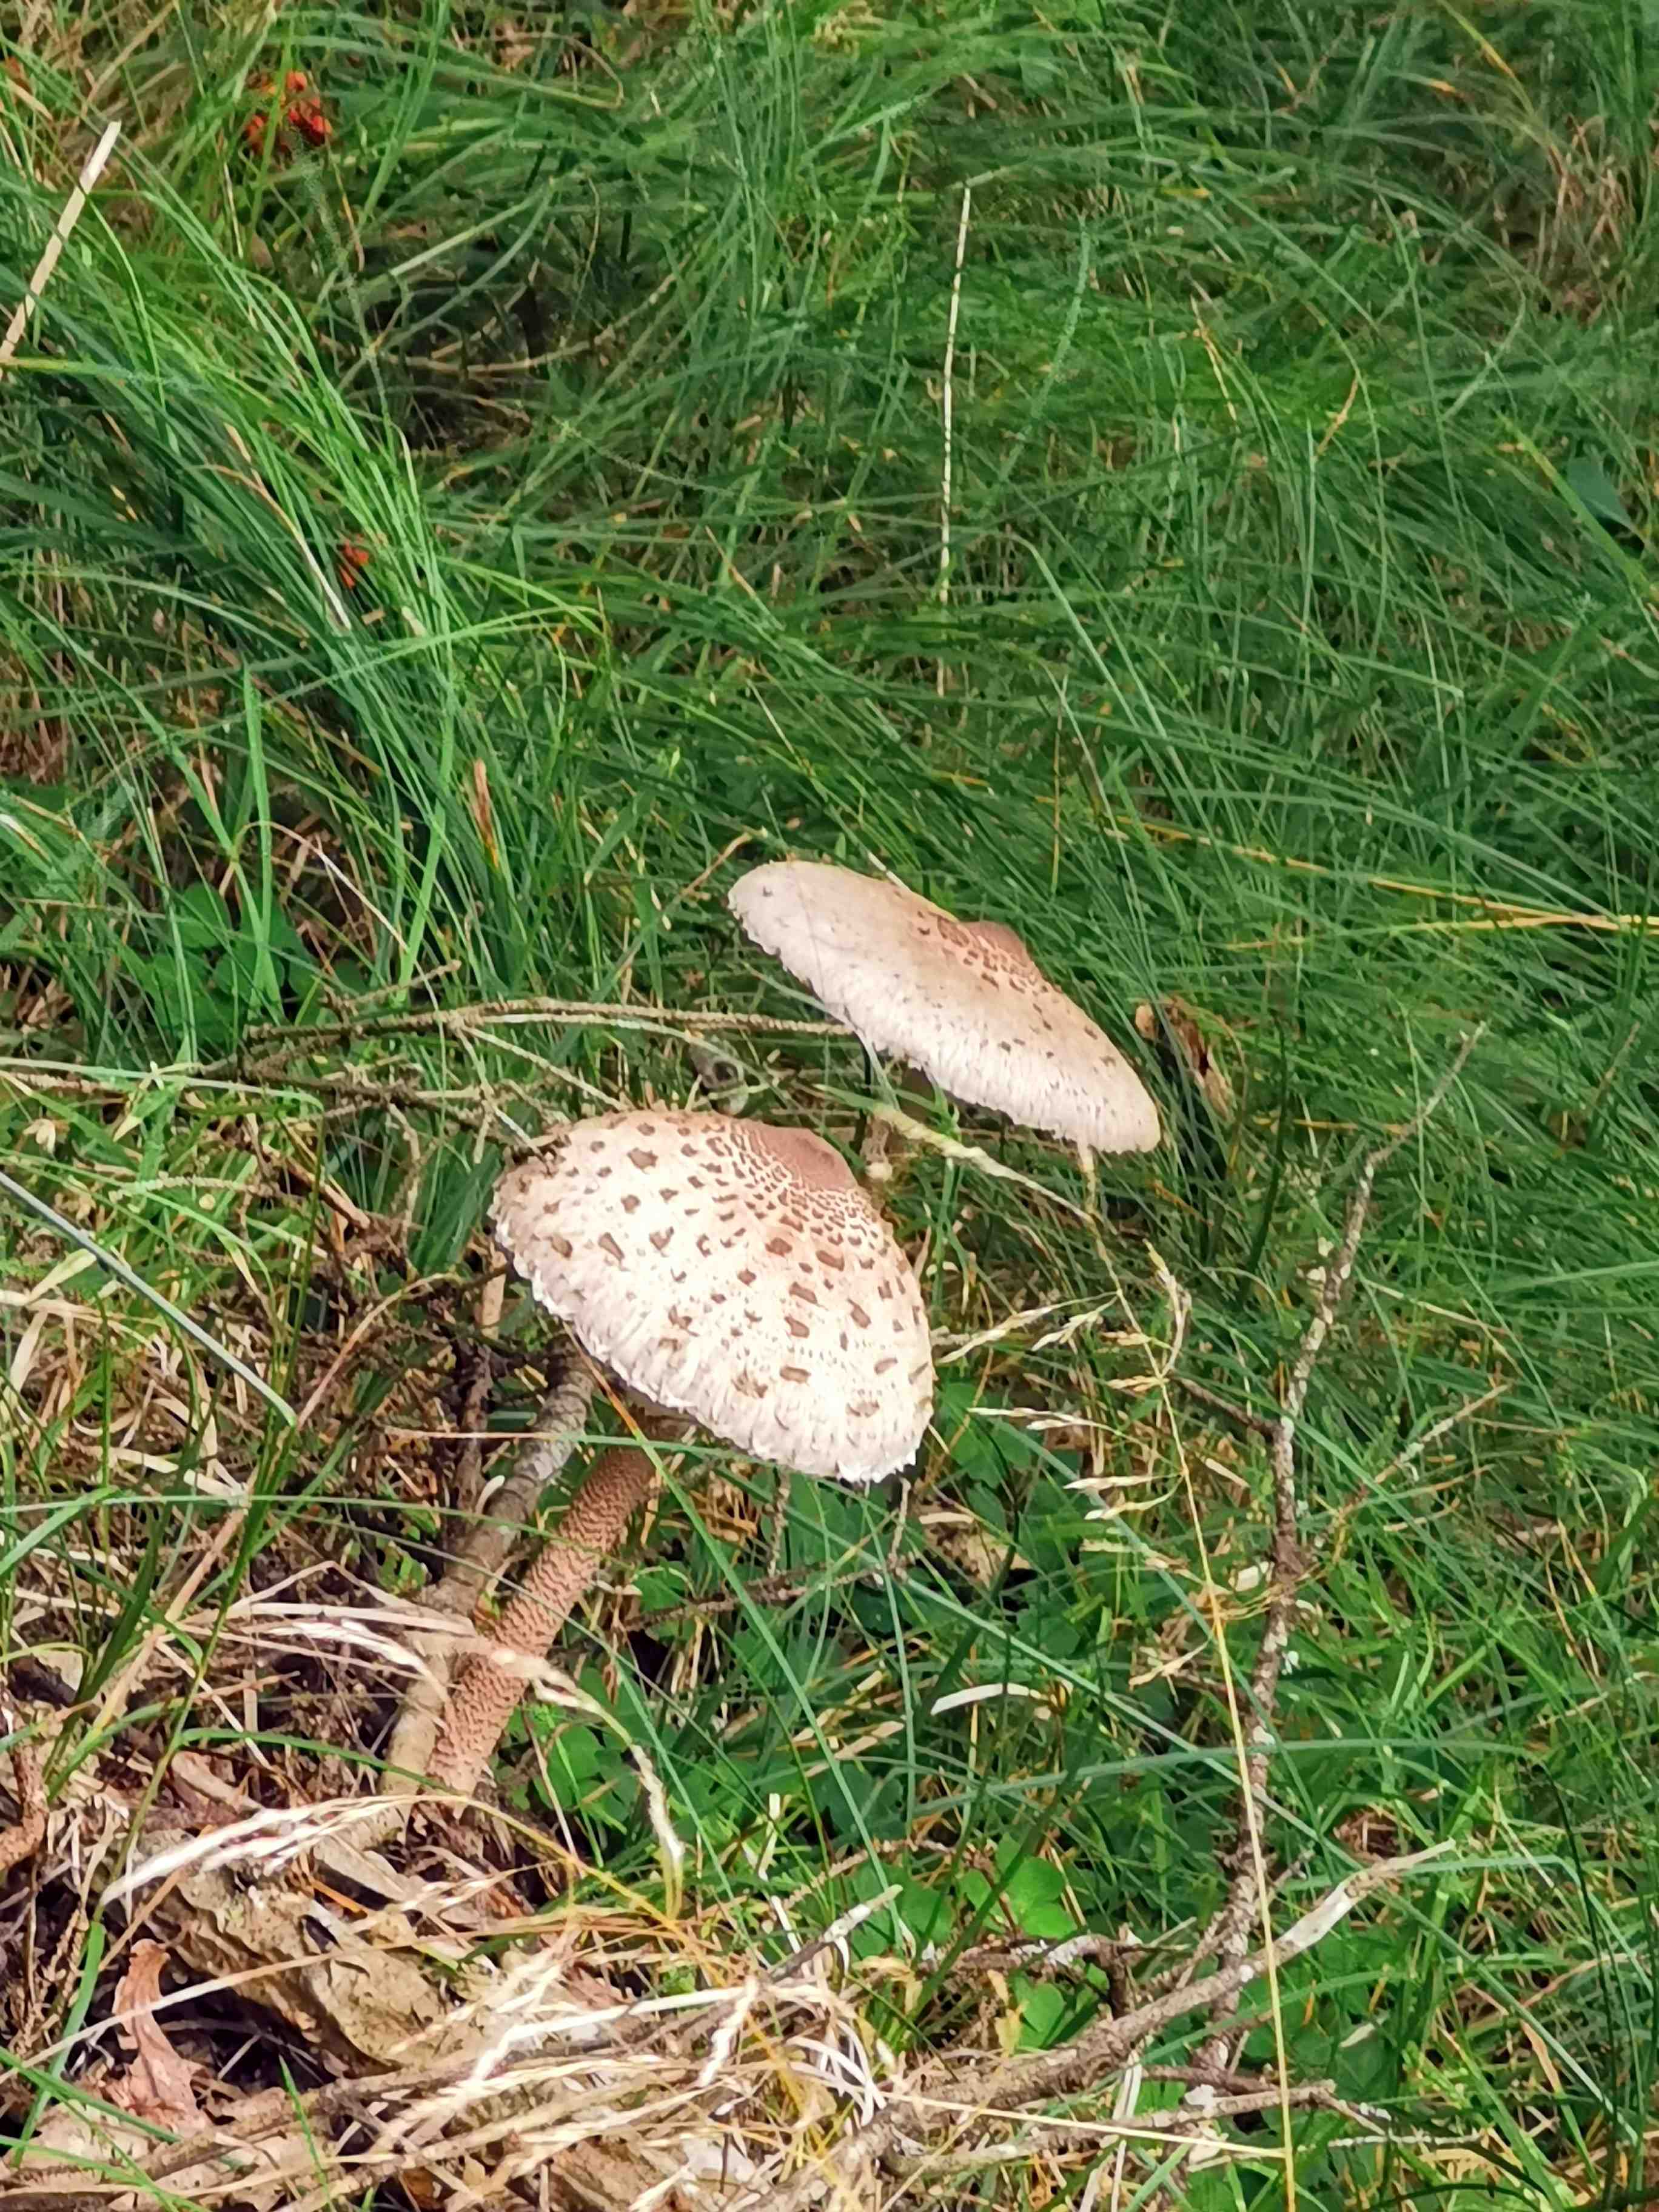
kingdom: Fungi
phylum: Basidiomycota
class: Agaricomycetes
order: Agaricales
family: Agaricaceae
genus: Macrolepiota
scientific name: Macrolepiota procera
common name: stor kæmpeparasolhat
